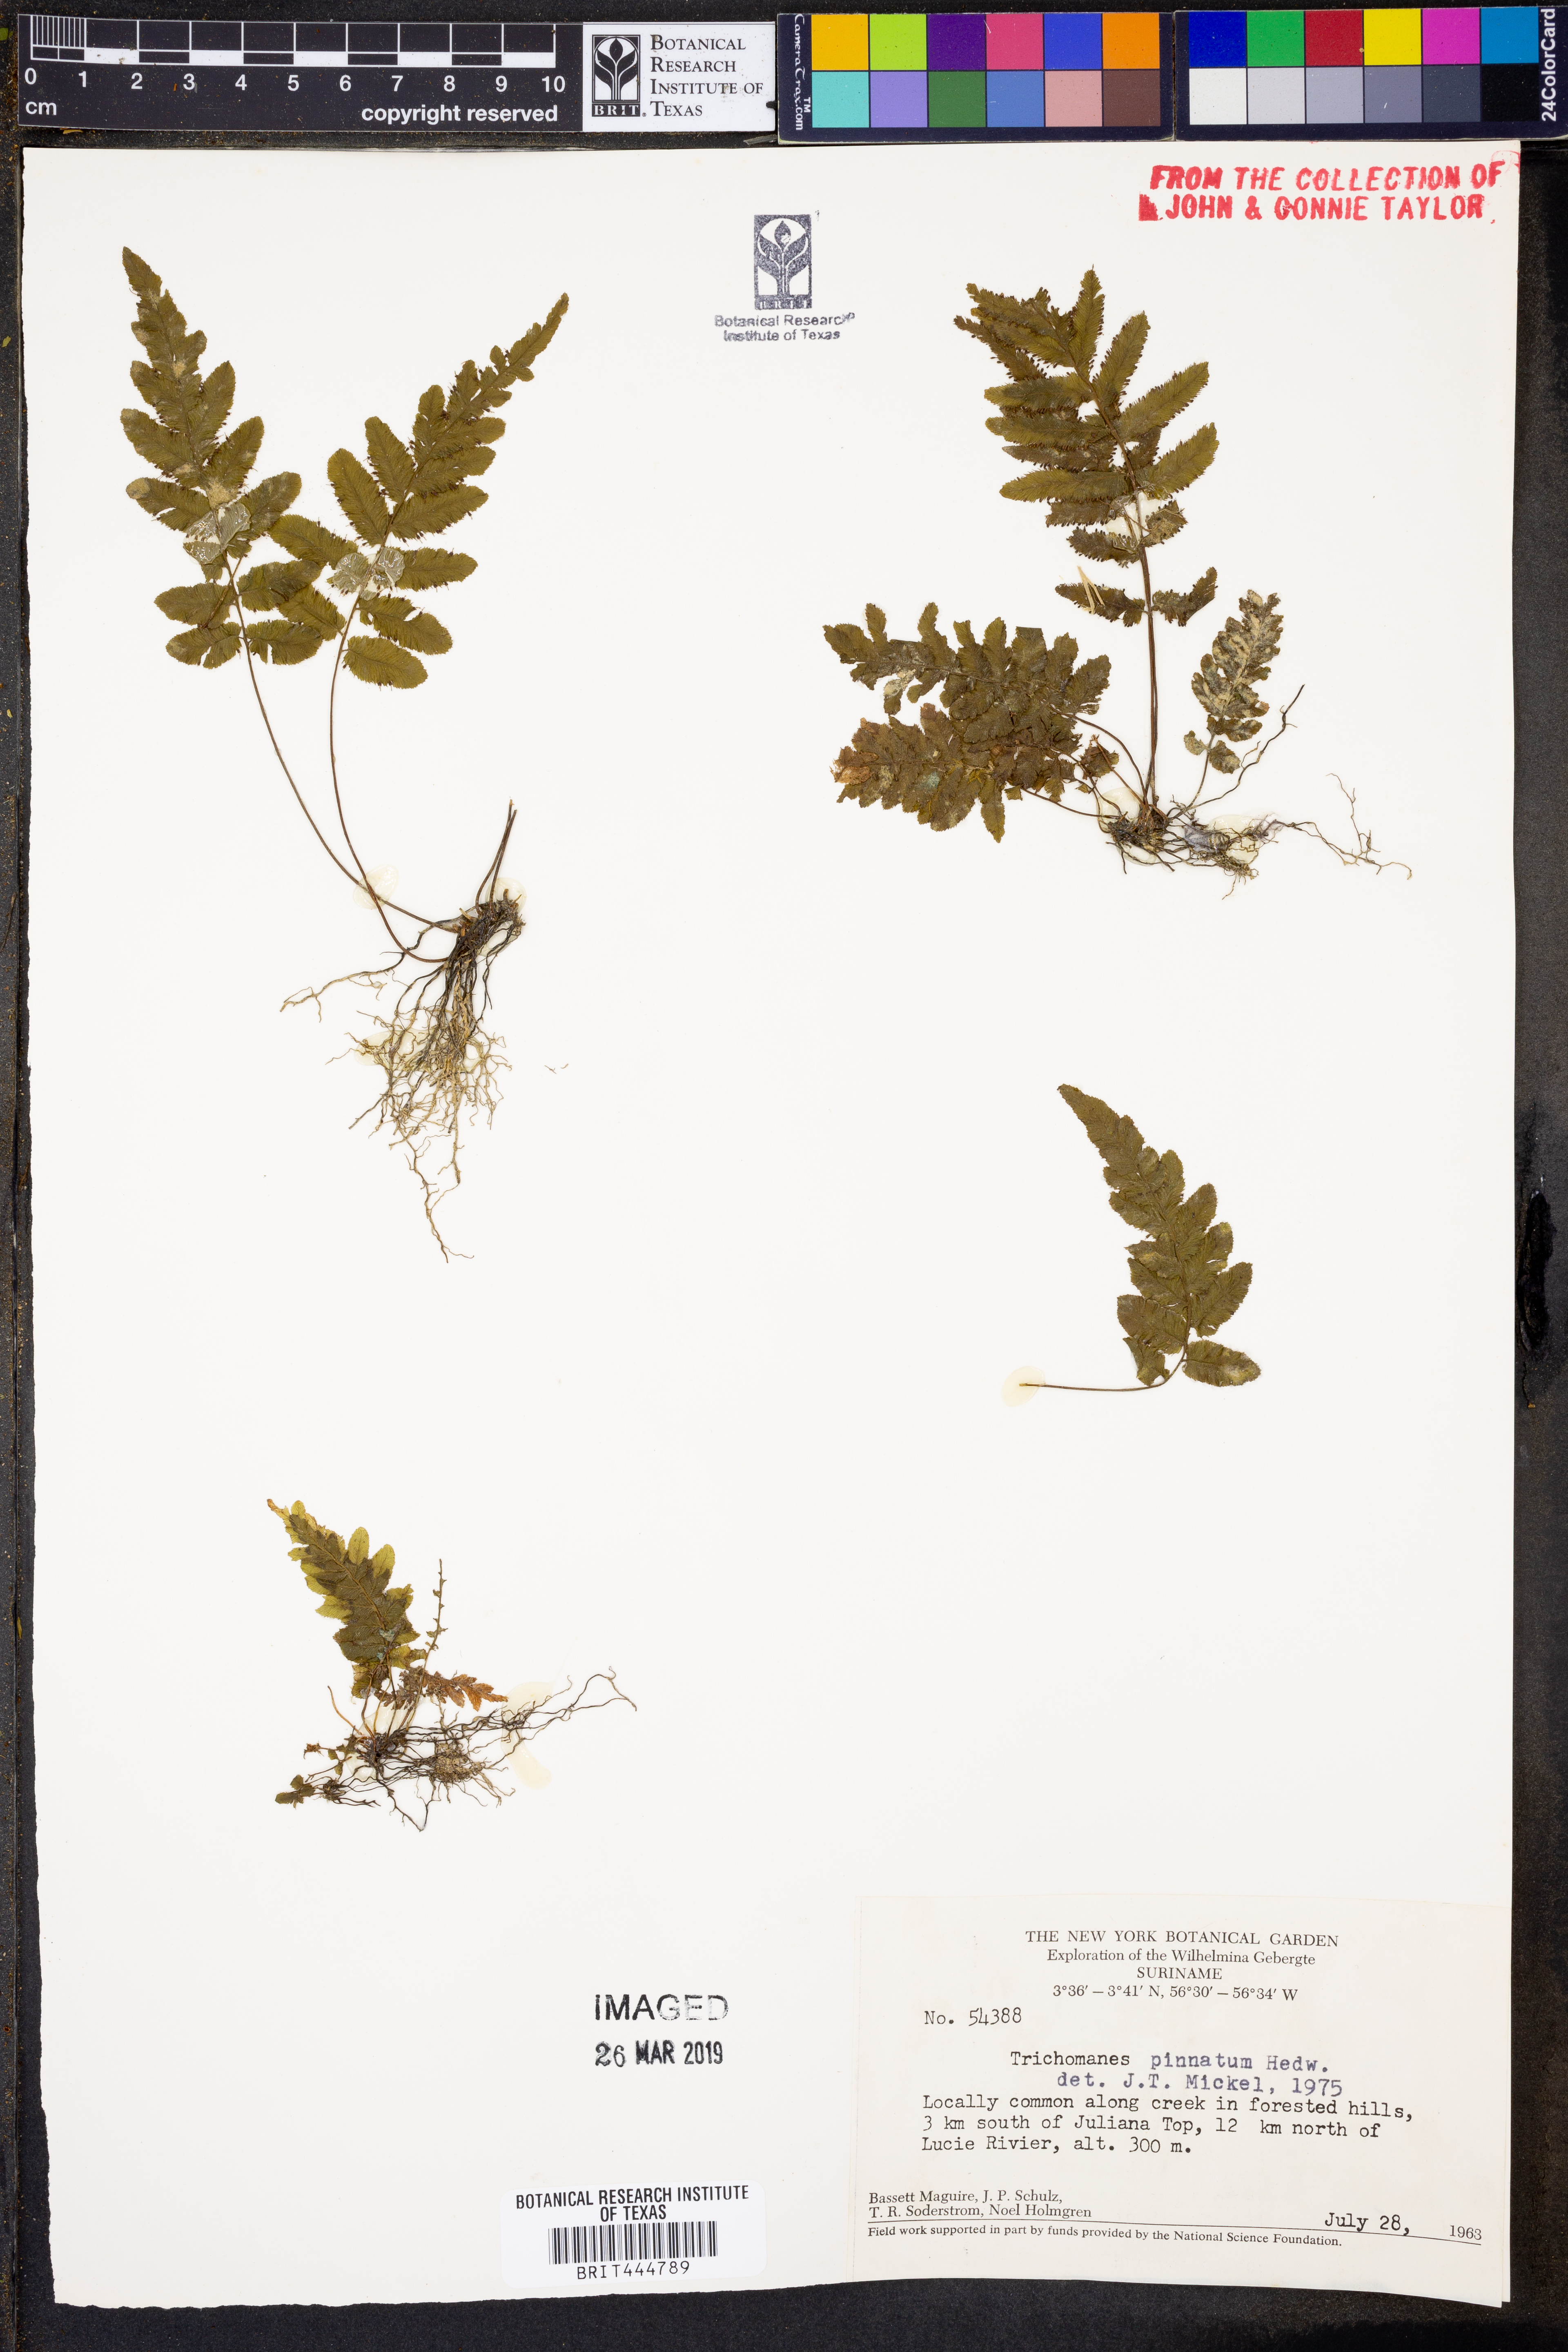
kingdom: Plantae
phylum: Tracheophyta
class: Polypodiopsida
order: Hymenophyllales
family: Hymenophyllaceae
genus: Trichomanes
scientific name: Trichomanes pinnatum
